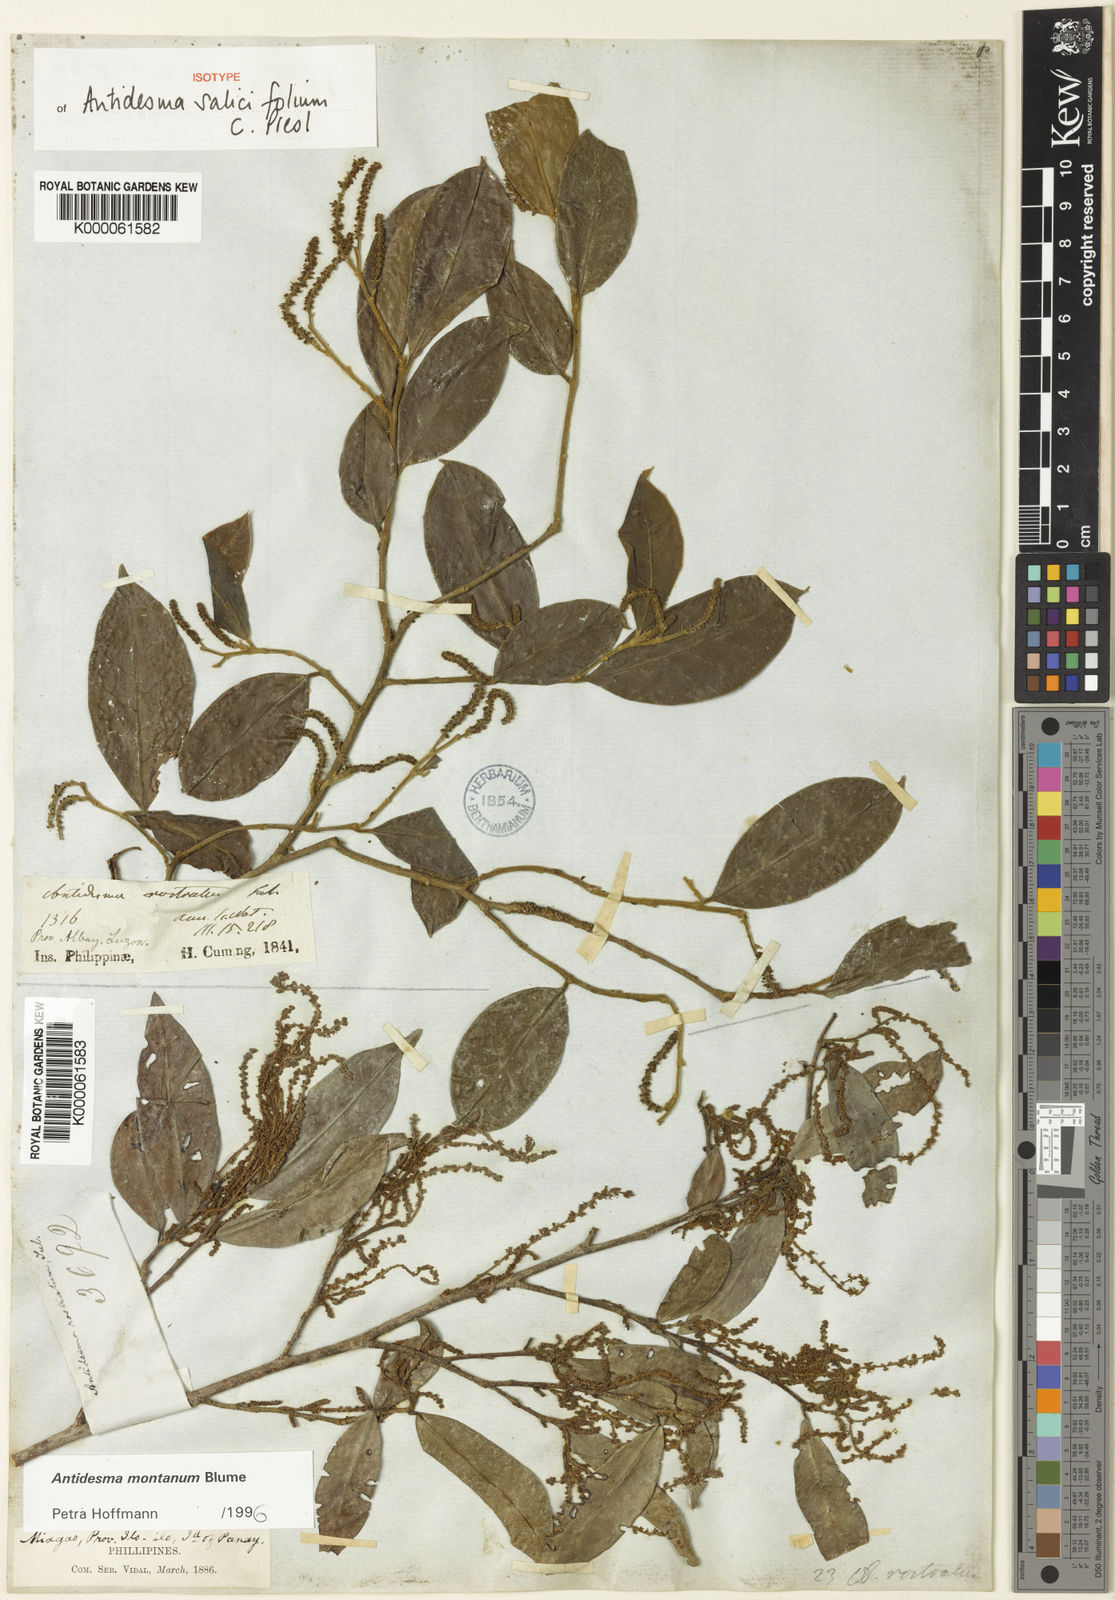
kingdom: Plantae
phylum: Tracheophyta
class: Magnoliopsida
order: Malpighiales
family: Phyllanthaceae
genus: Antidesma
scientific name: Antidesma montanum
